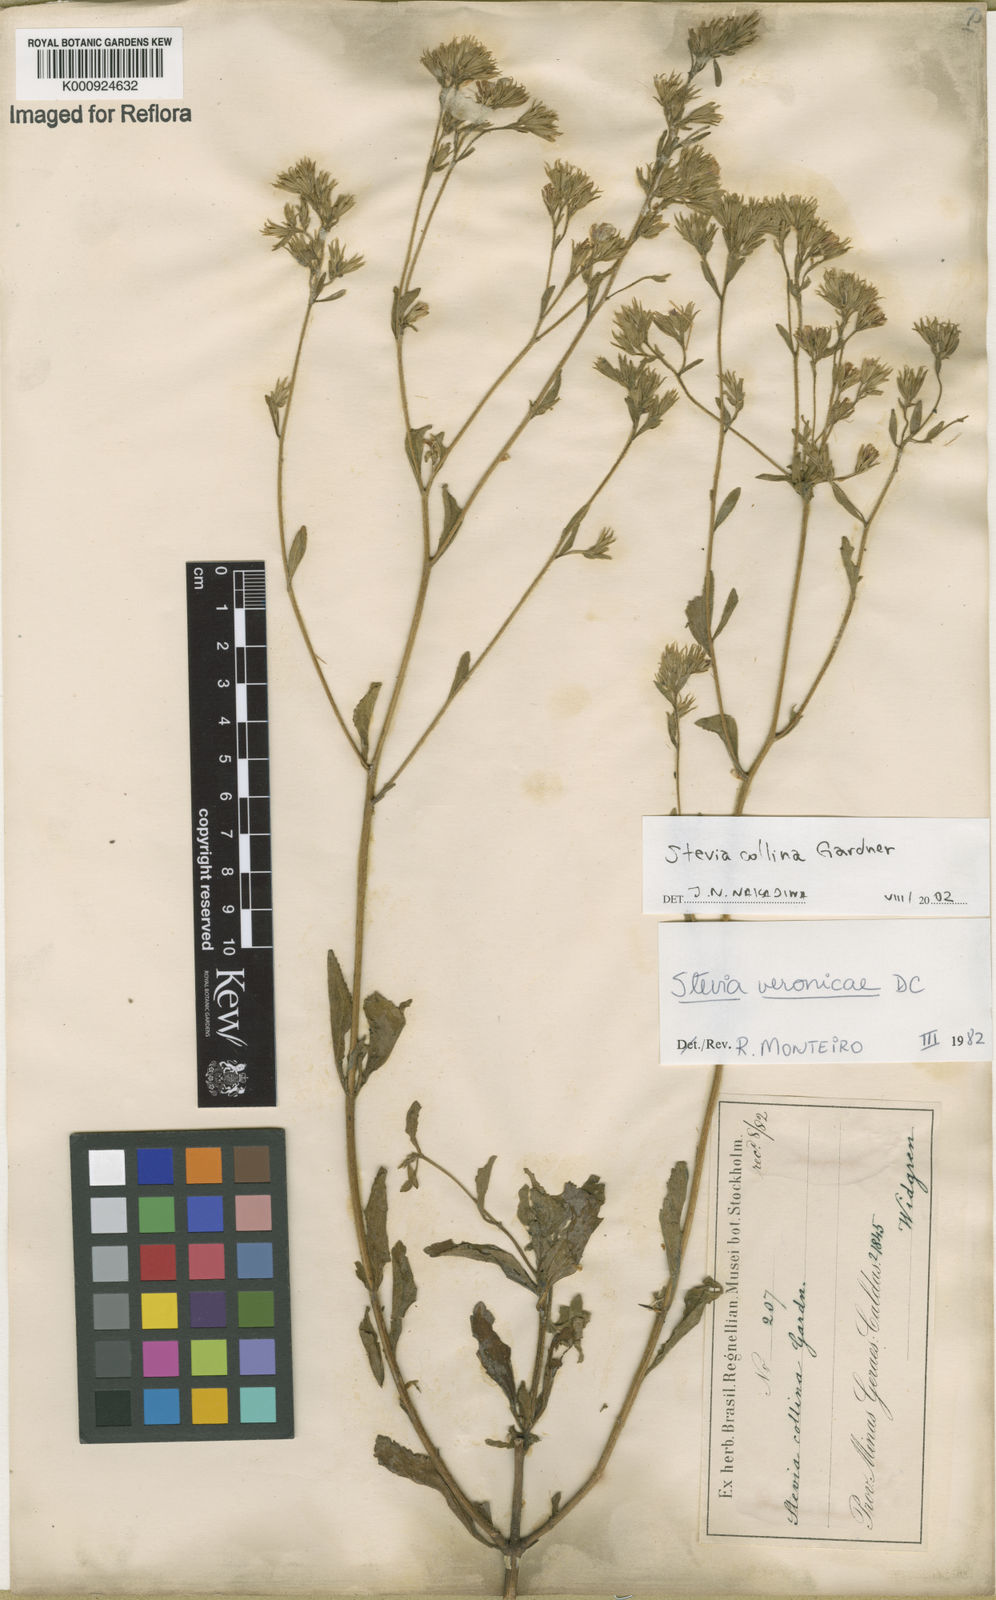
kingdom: Plantae
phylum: Tracheophyta
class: Magnoliopsida
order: Asterales
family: Asteraceae
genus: Stevia
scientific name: Stevia collina
